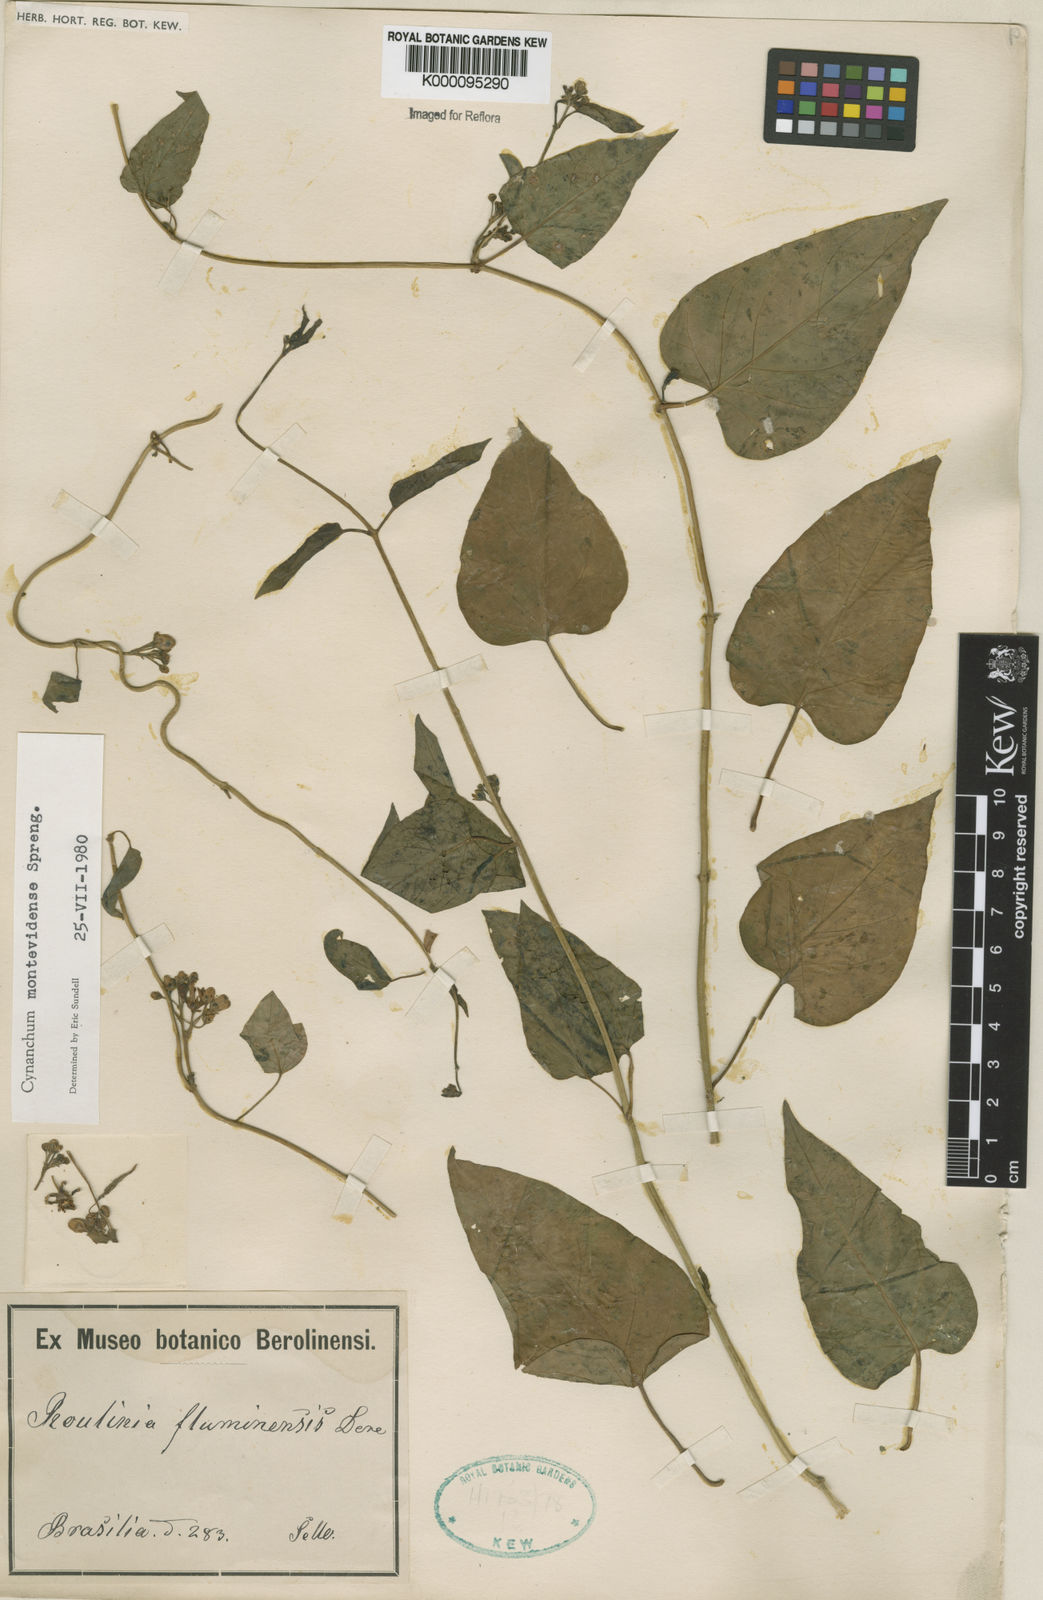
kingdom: Plantae
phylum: Tracheophyta
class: Magnoliopsida
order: Gentianales
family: Apocynaceae
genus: Cynanchum
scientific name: Cynanchum montevidense
